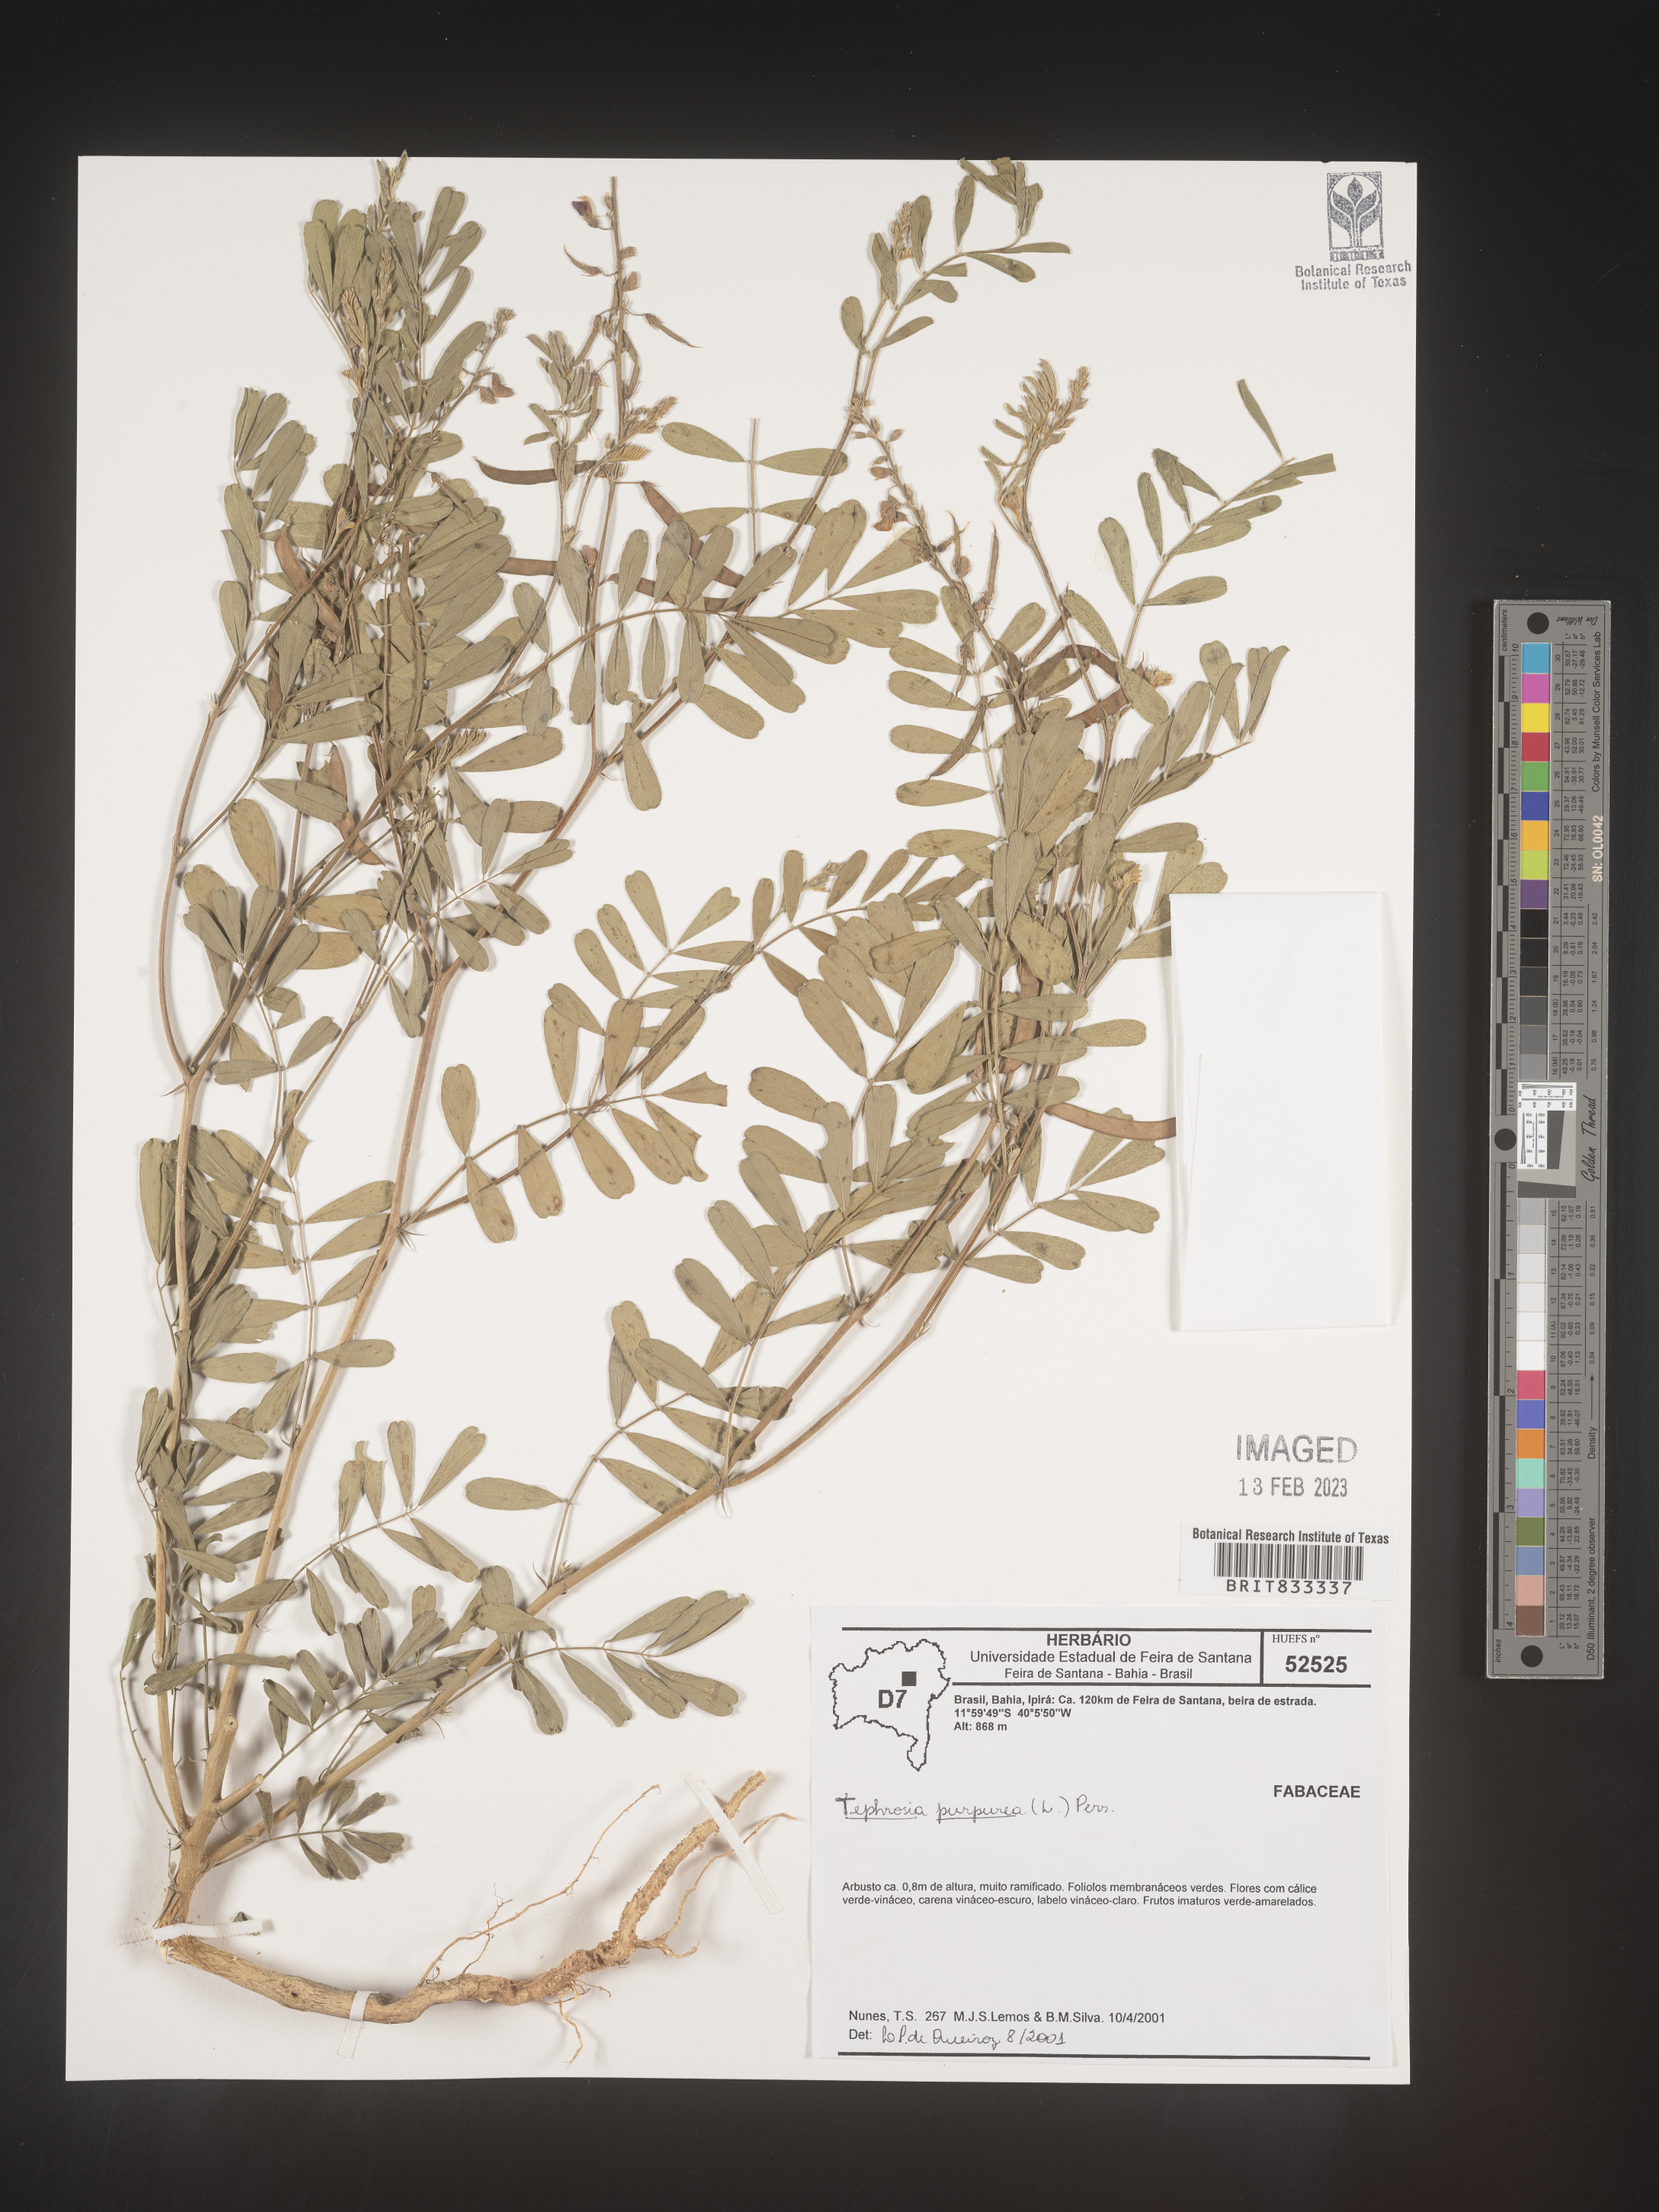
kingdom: Plantae
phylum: Tracheophyta
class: Magnoliopsida
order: Fabales
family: Fabaceae
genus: Tephrosia
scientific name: Tephrosia
